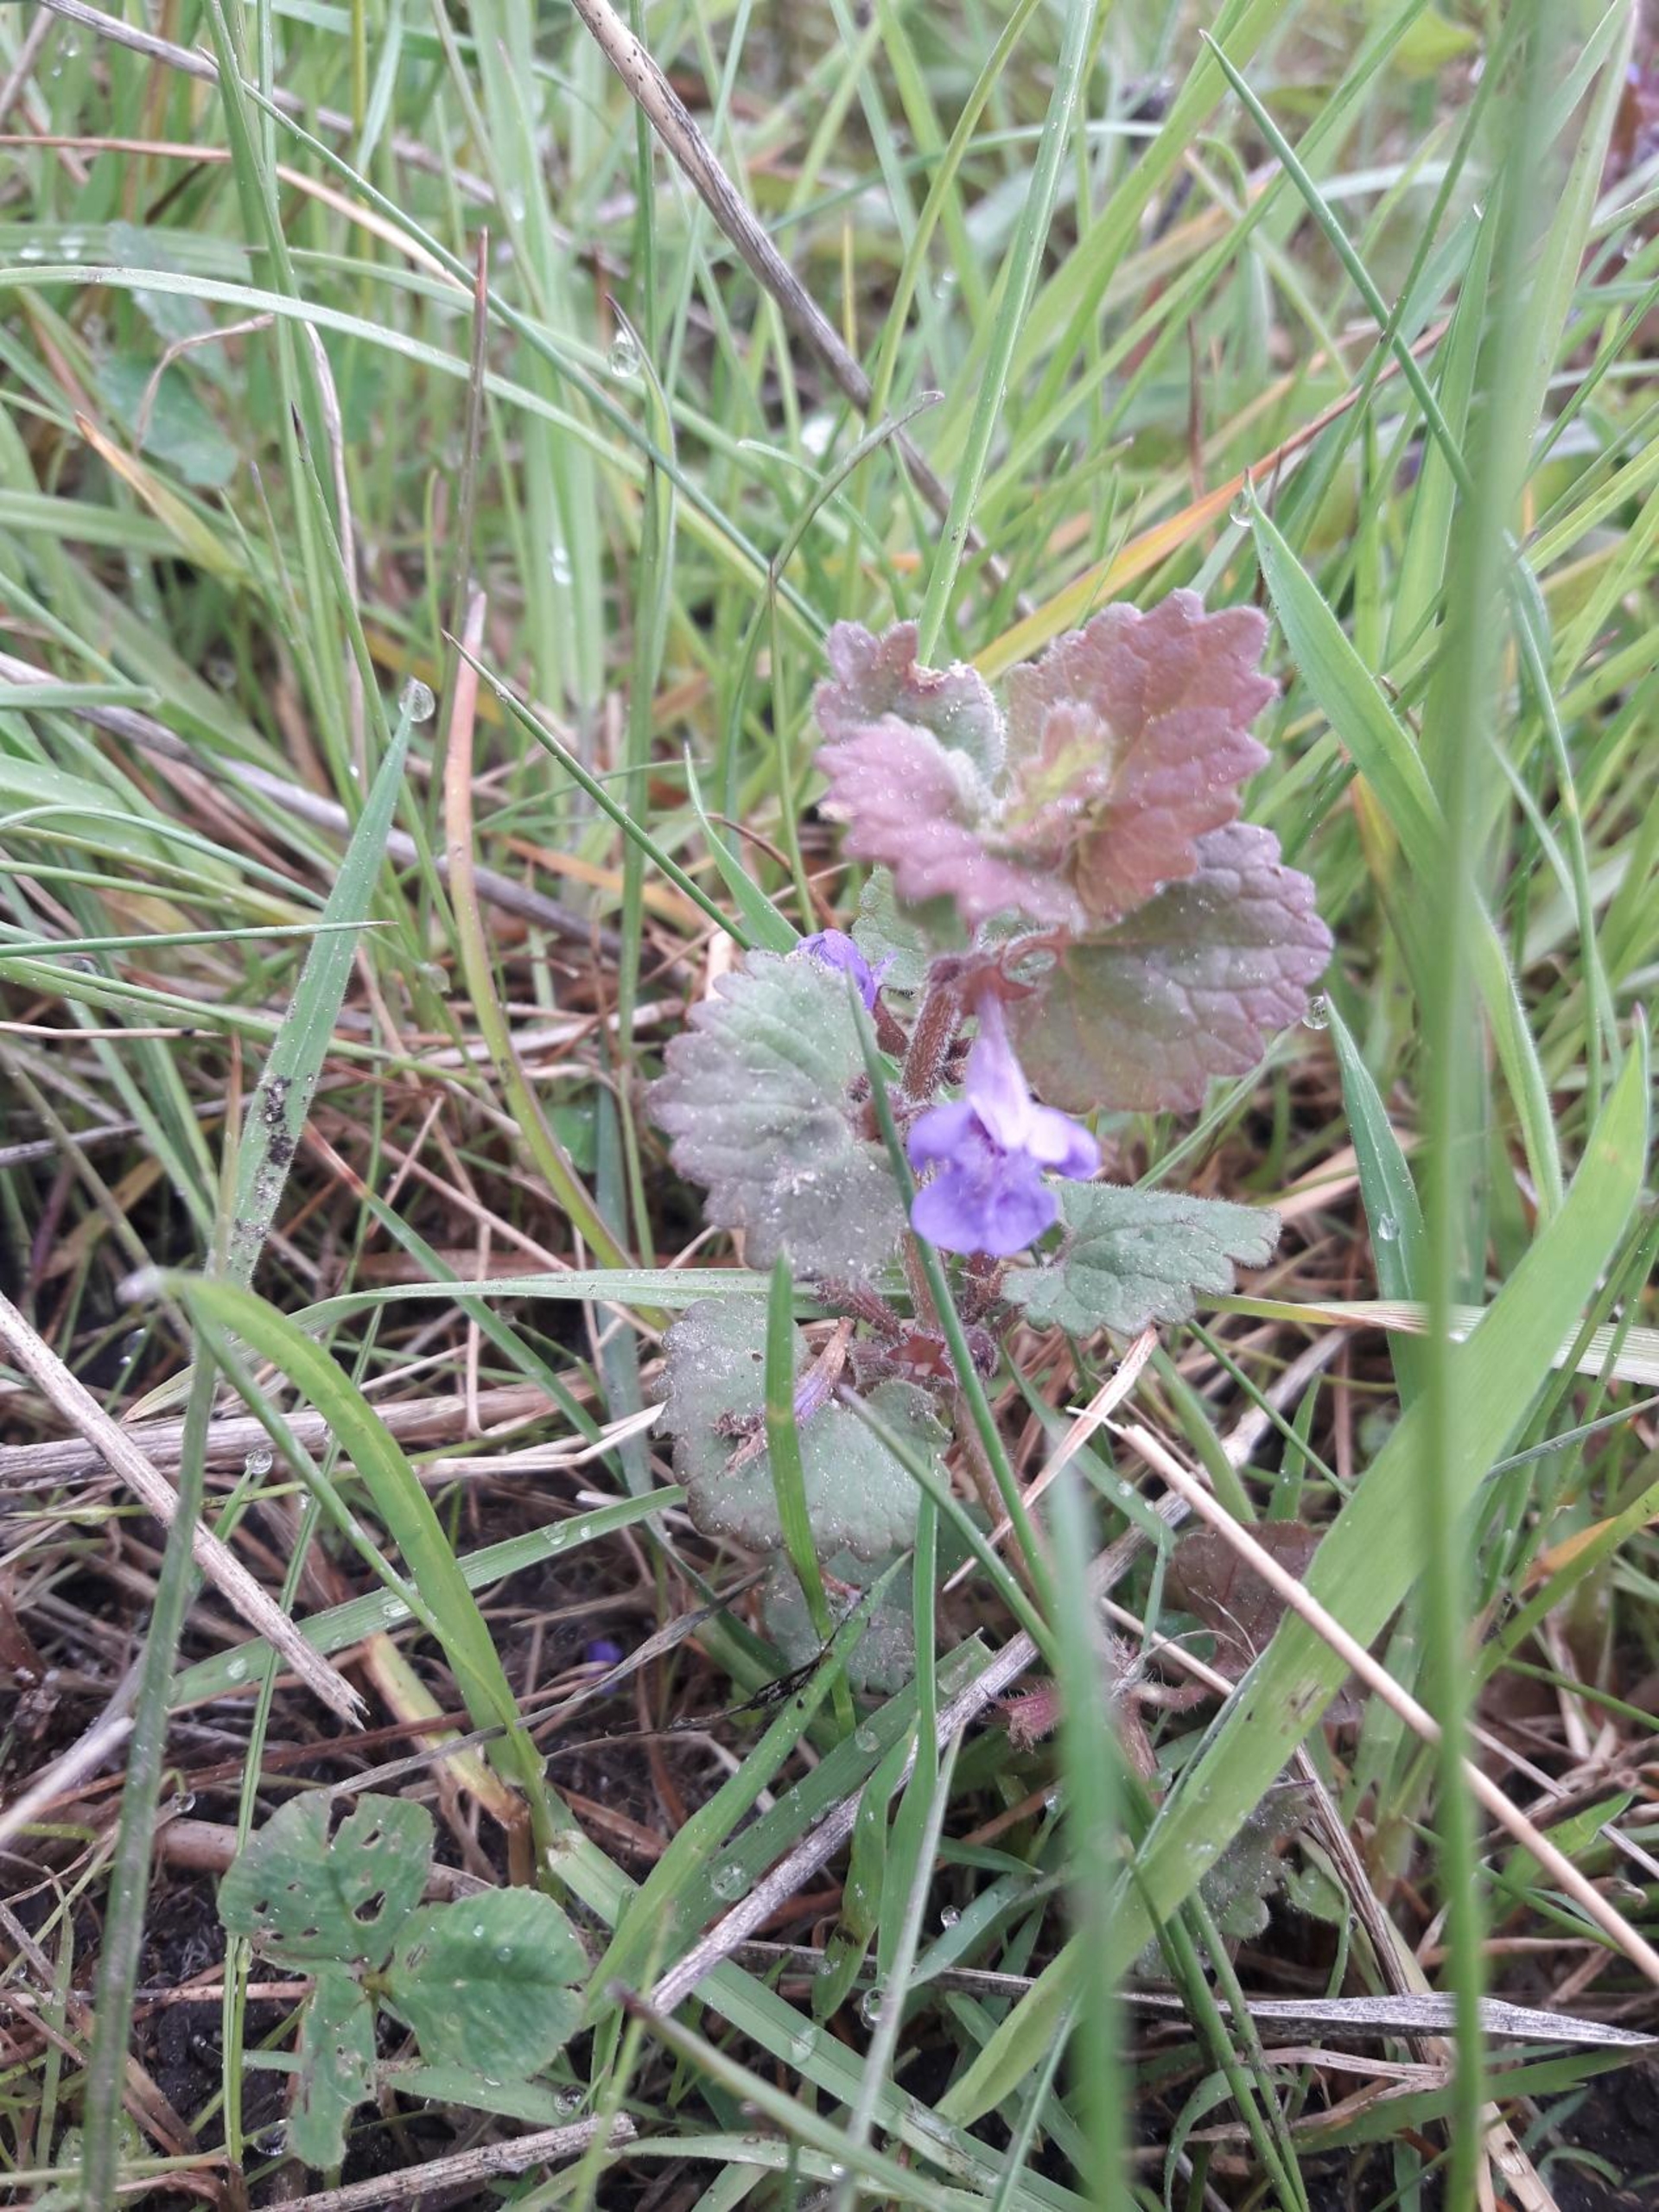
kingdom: Plantae
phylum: Tracheophyta
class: Magnoliopsida
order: Lamiales
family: Lamiaceae
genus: Glechoma
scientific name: Glechoma hederacea
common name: Korsknap
